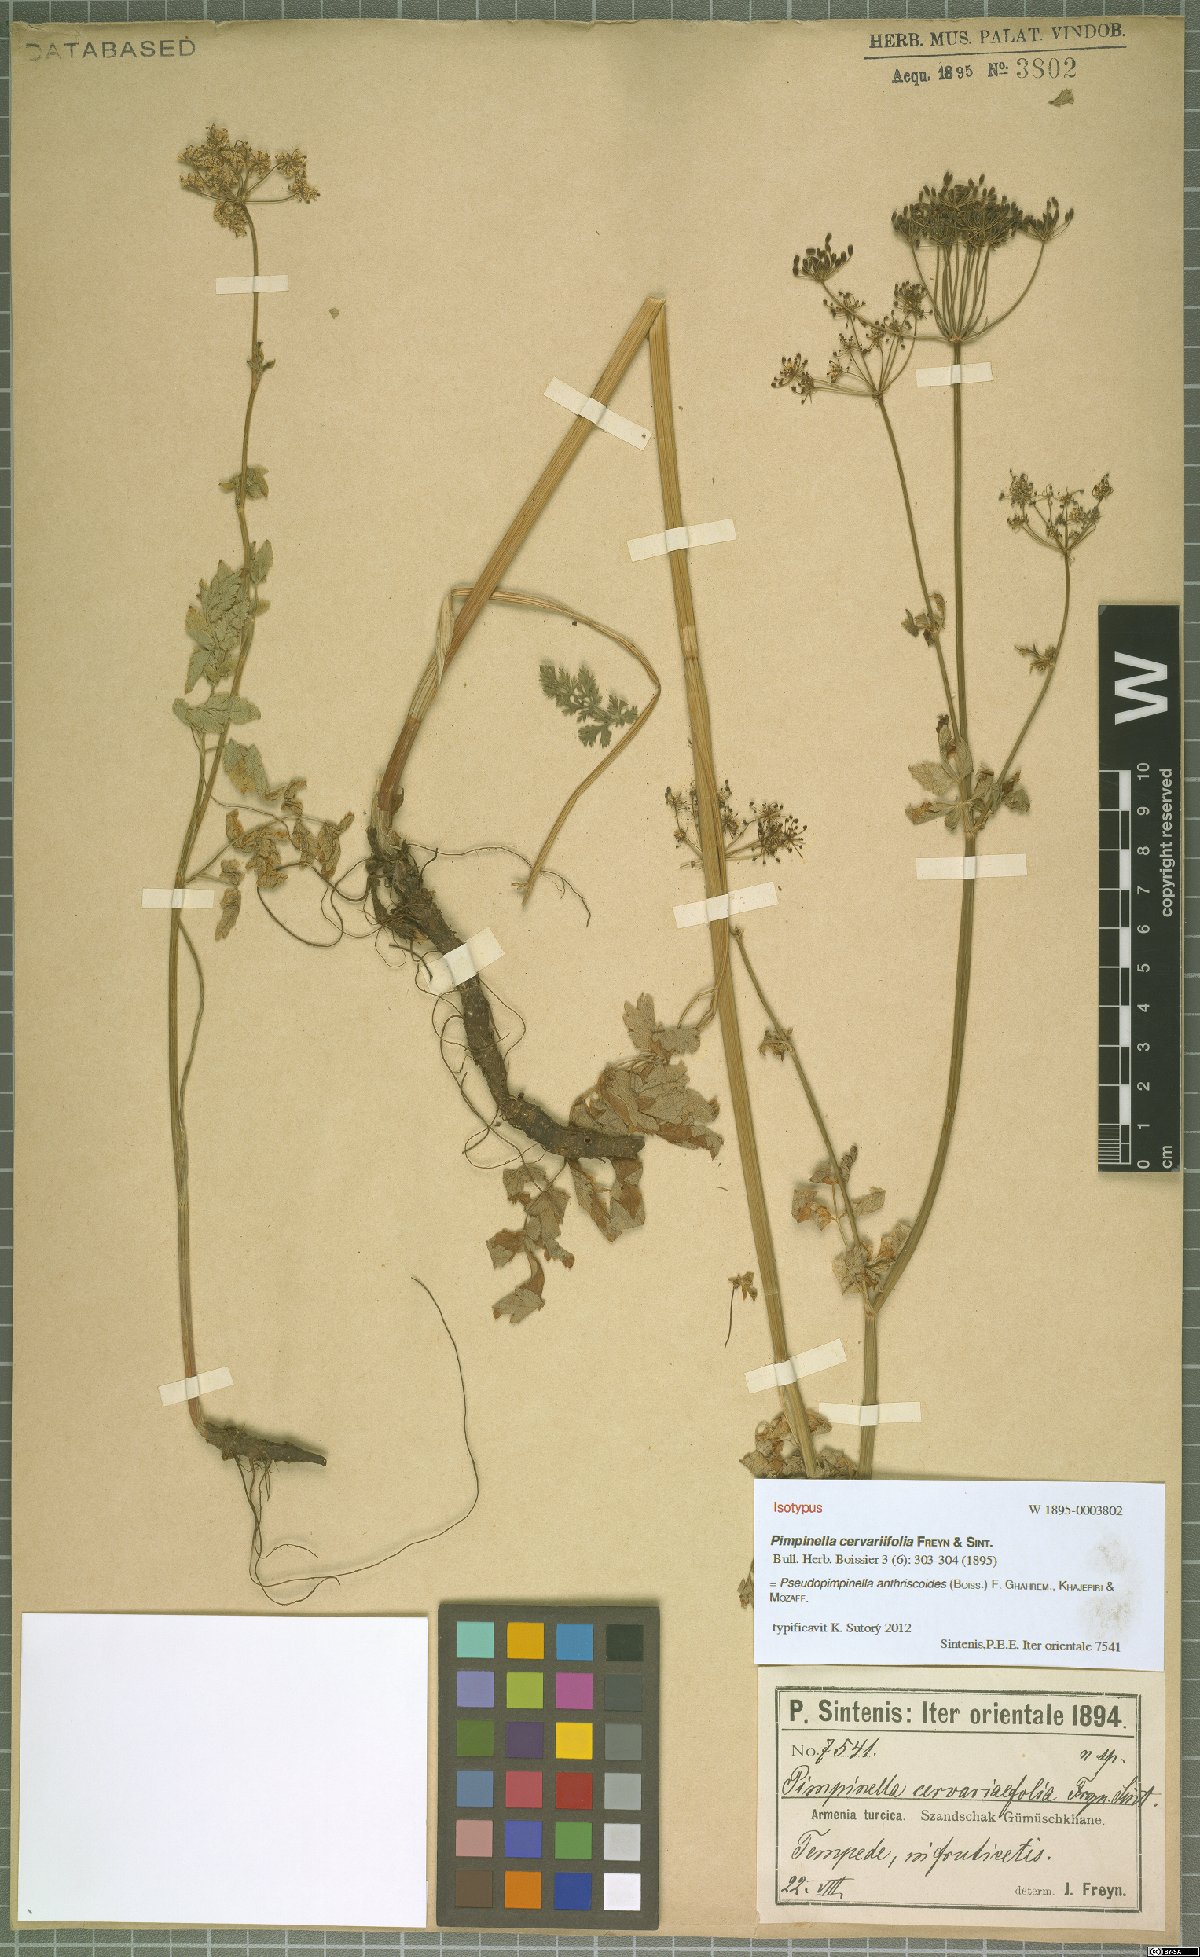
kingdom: Plantae
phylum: Tracheophyta
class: Magnoliopsida
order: Apiales
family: Apiaceae
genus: Aegopodium
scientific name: Aegopodium tribracteolatum
